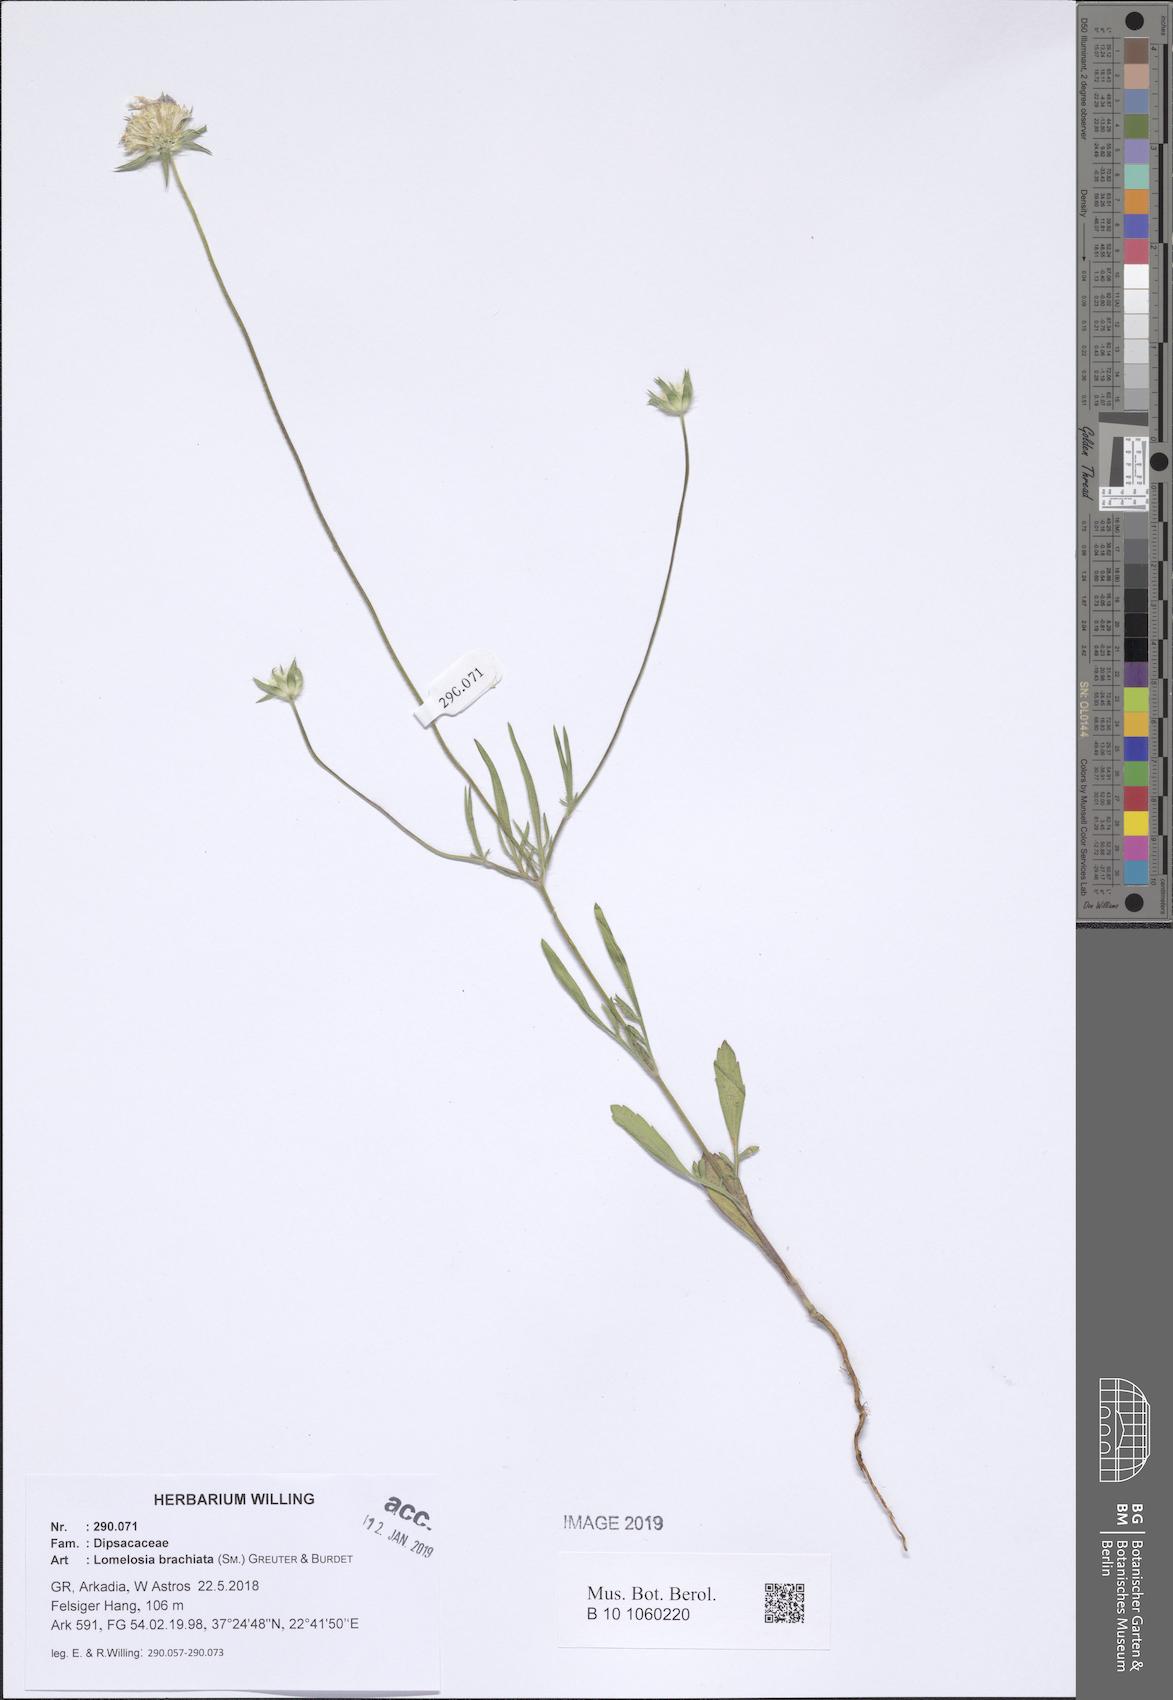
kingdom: Plantae
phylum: Tracheophyta
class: Magnoliopsida
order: Dipsacales
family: Caprifoliaceae
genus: Lomelosia
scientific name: Lomelosia brachiata
